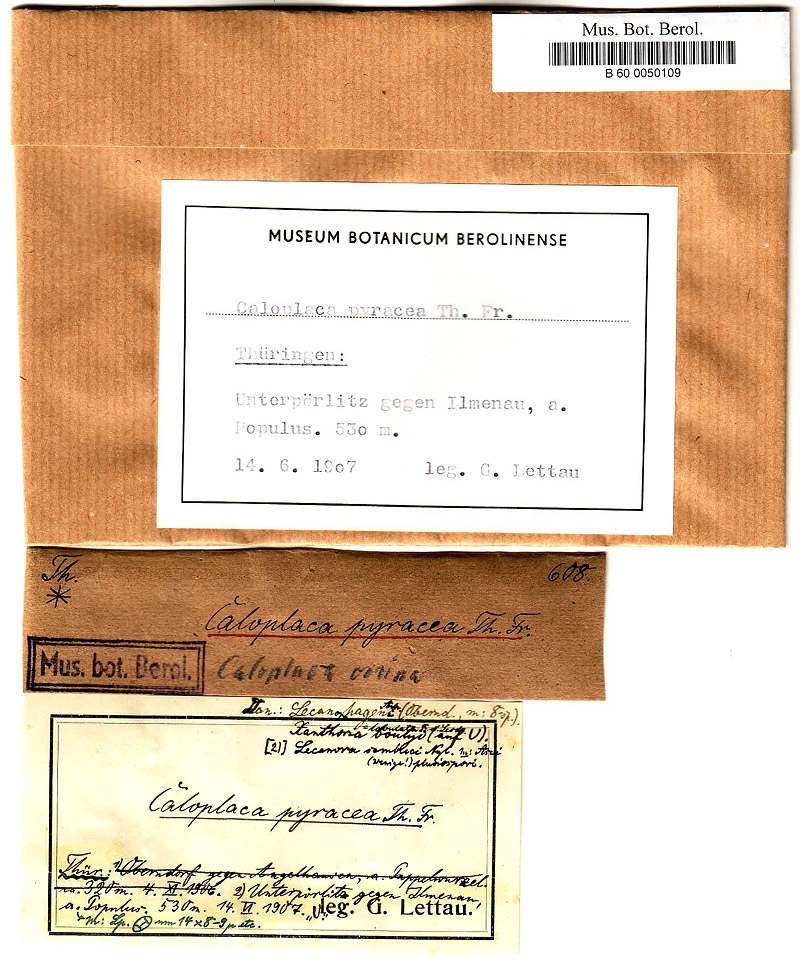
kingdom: Fungi
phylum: Ascomycota
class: Lecanoromycetes
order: Teloschistales
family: Teloschistaceae
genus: Seawardiella
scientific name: Seawardiella lobulata
